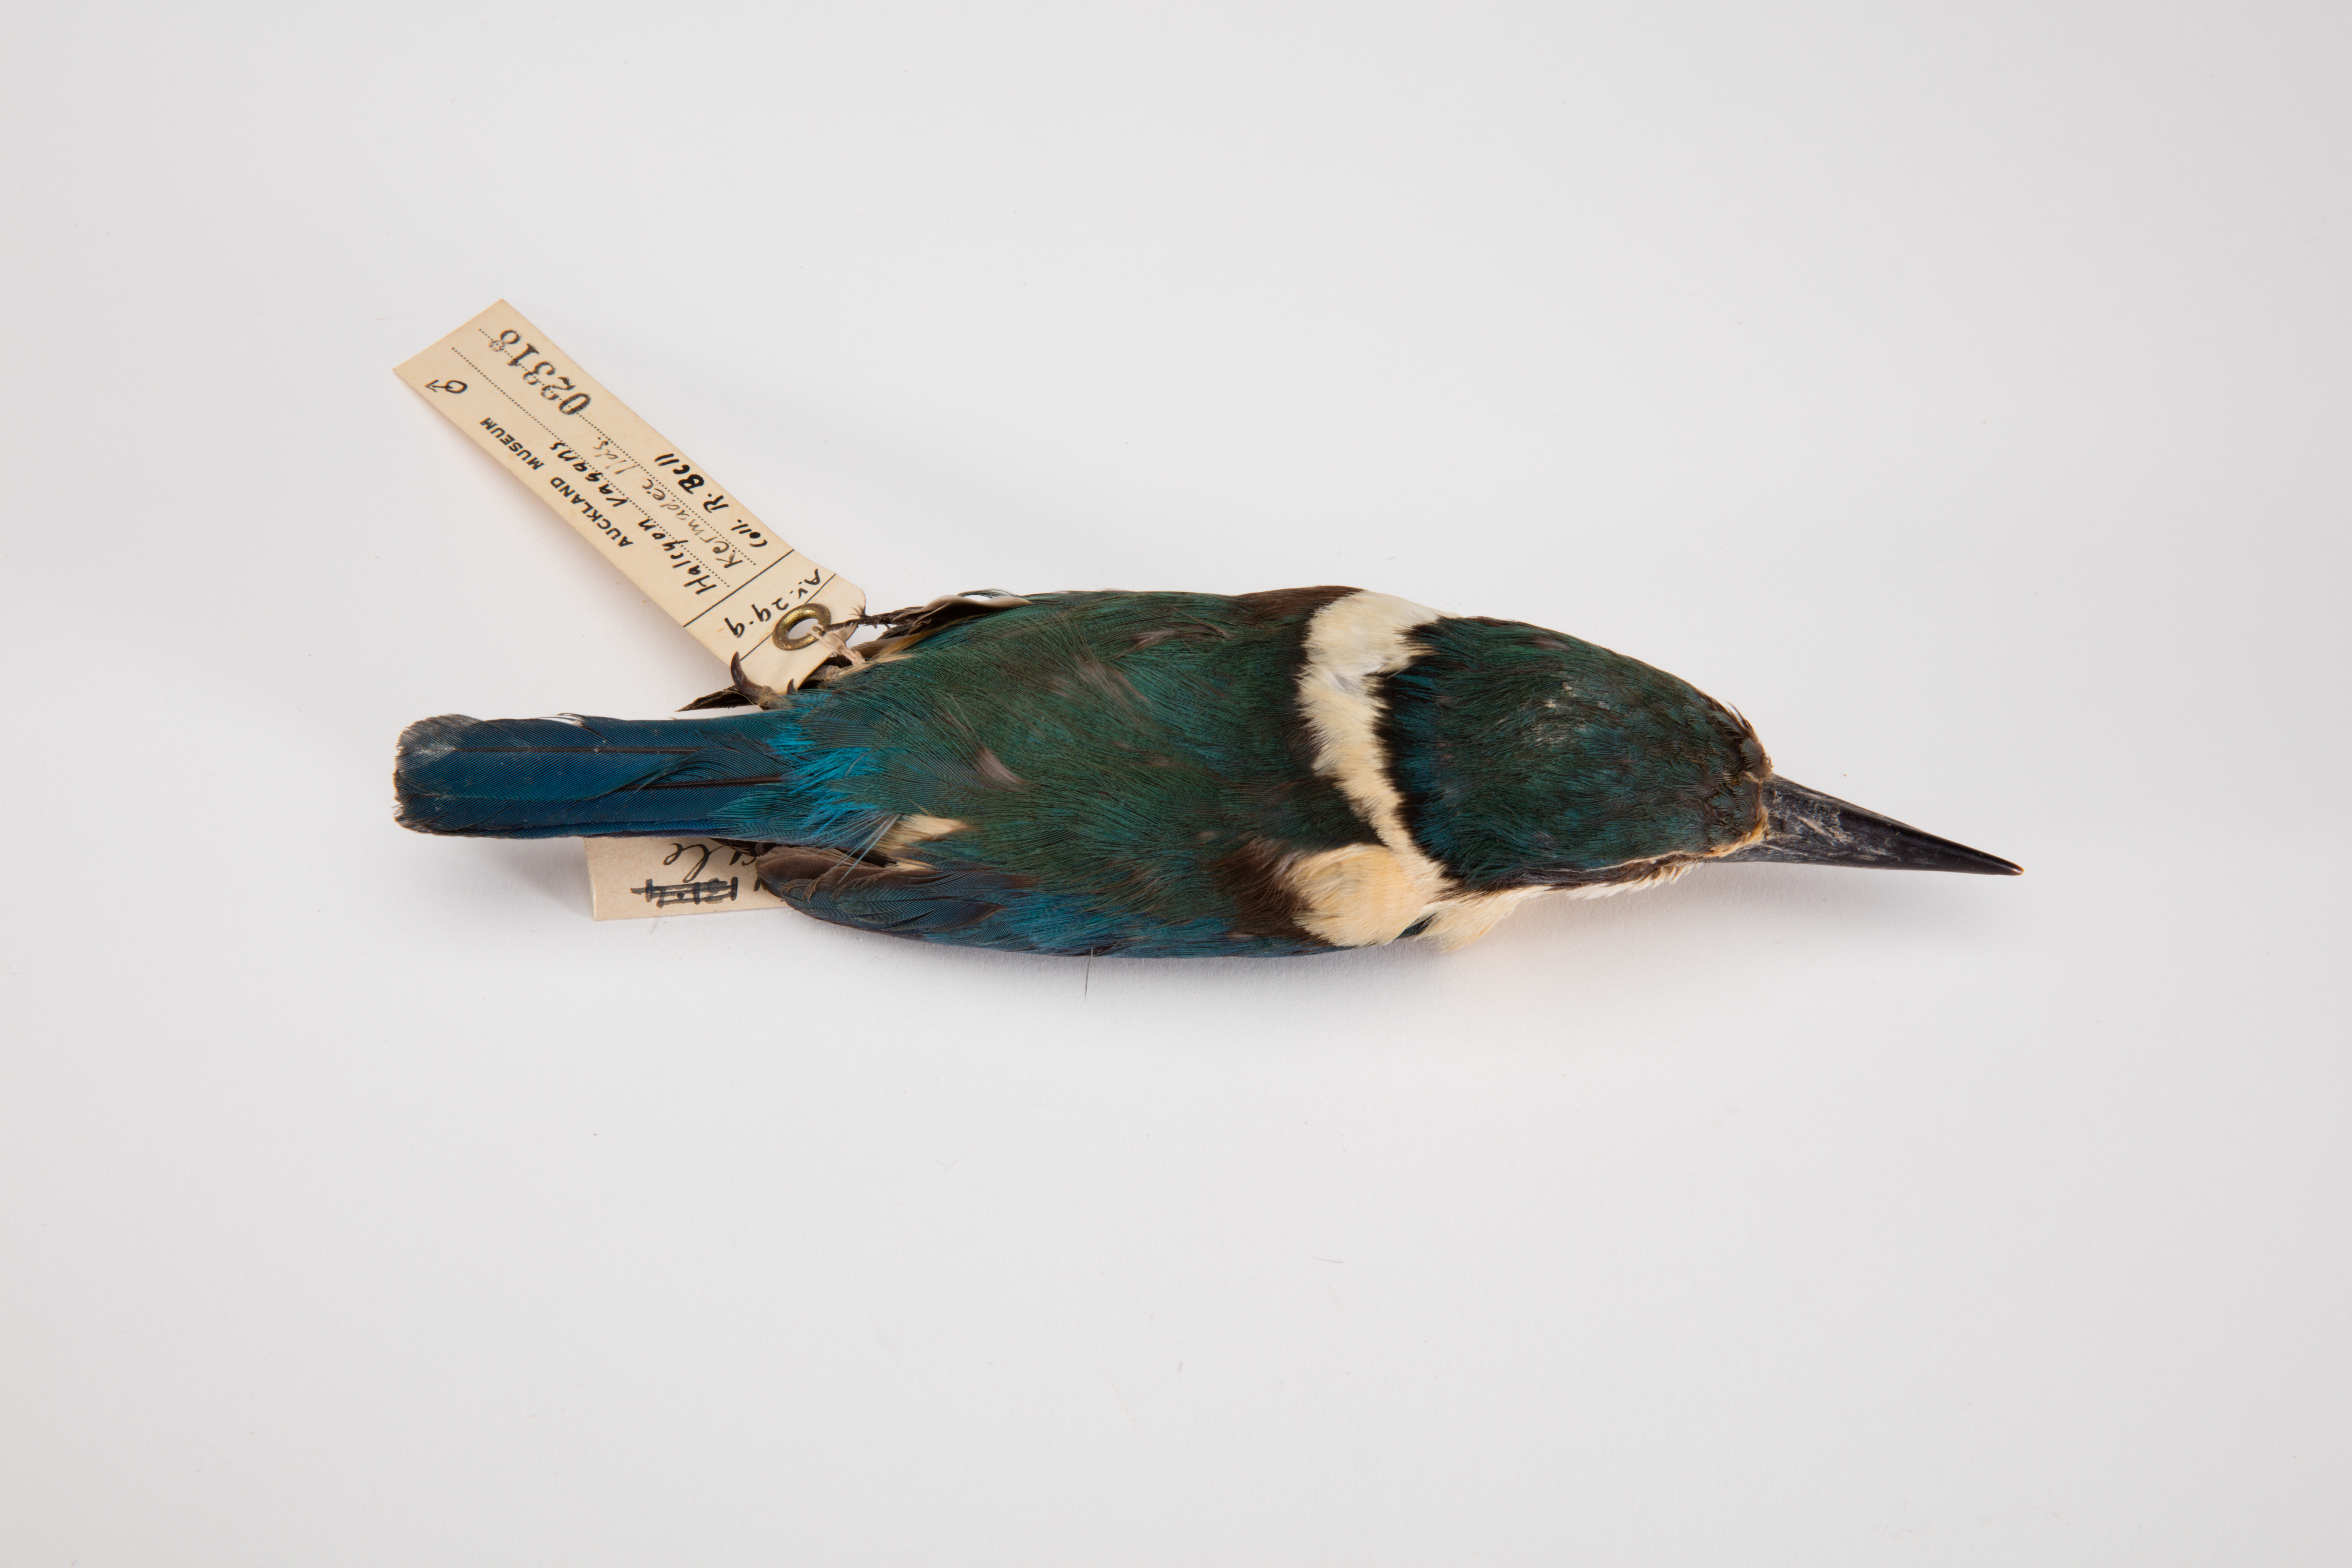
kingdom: Animalia
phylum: Chordata
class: Aves
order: Coraciiformes
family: Alcedinidae
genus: Todiramphus
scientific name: Todiramphus sanctus
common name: Sacred kingfisher
